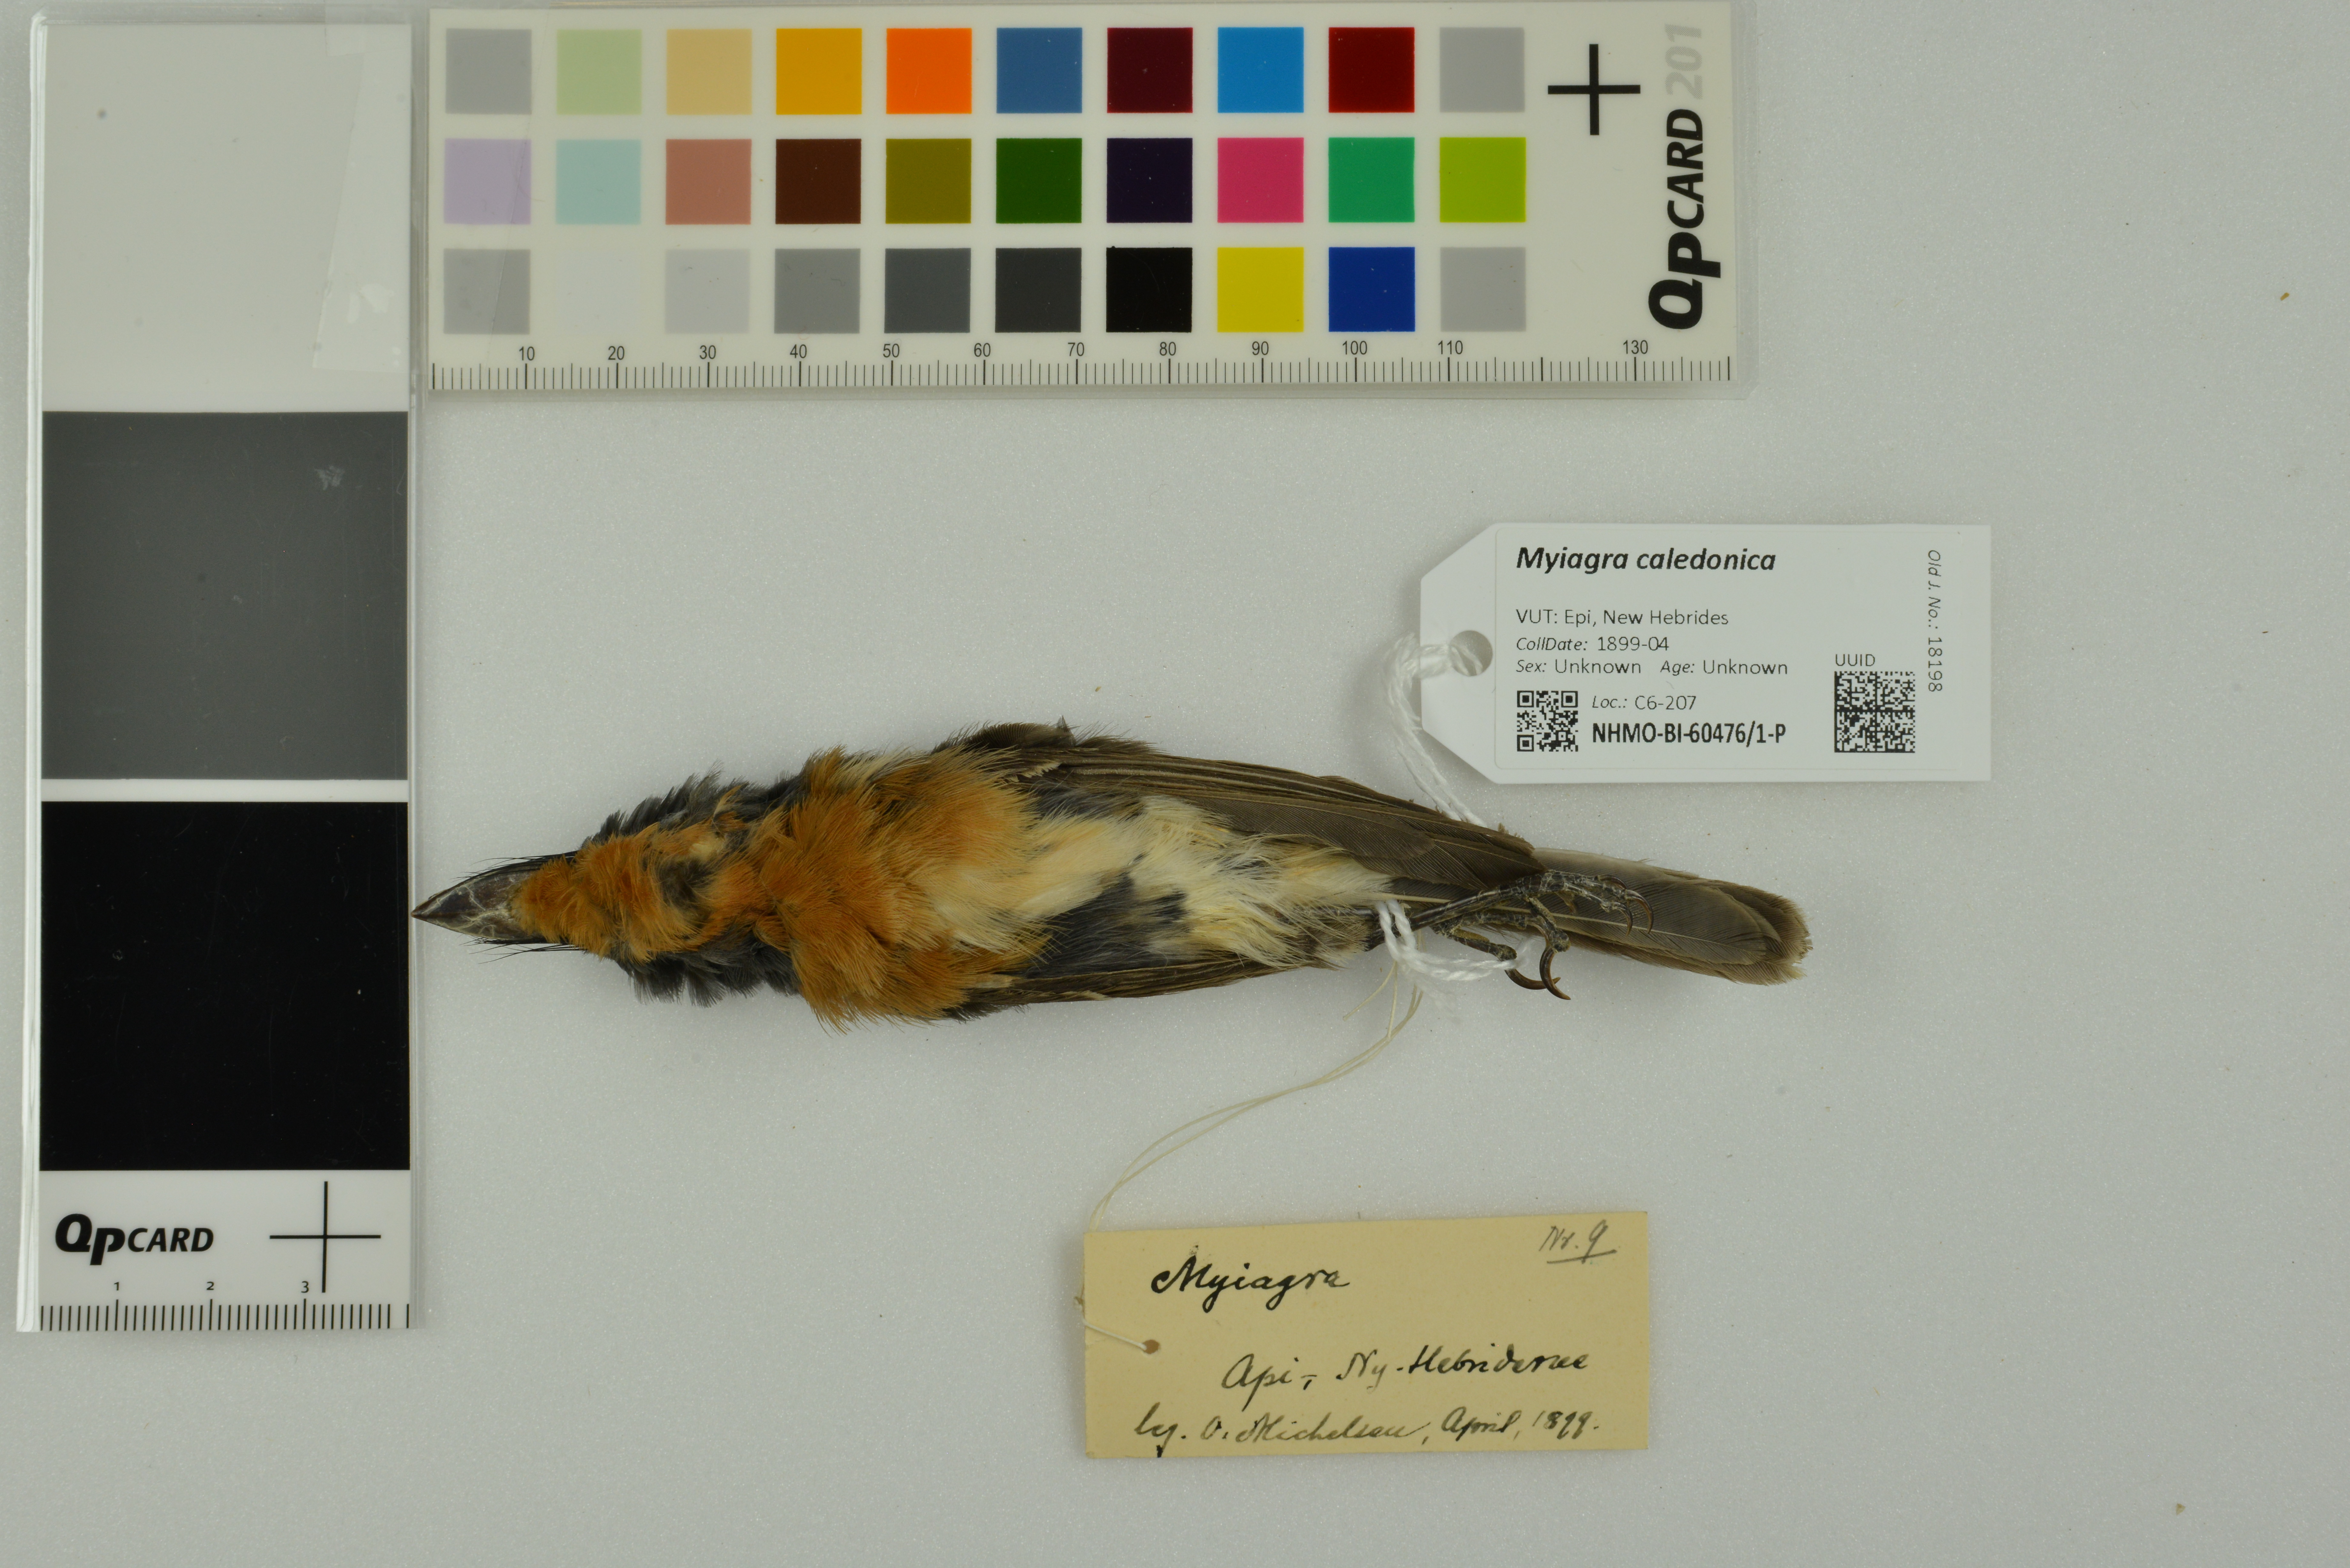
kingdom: Animalia
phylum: Chordata
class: Aves
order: Passeriformes
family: Monarchidae
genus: Myiagra
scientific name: Myiagra caledonica
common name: Melanesian flycatcher
